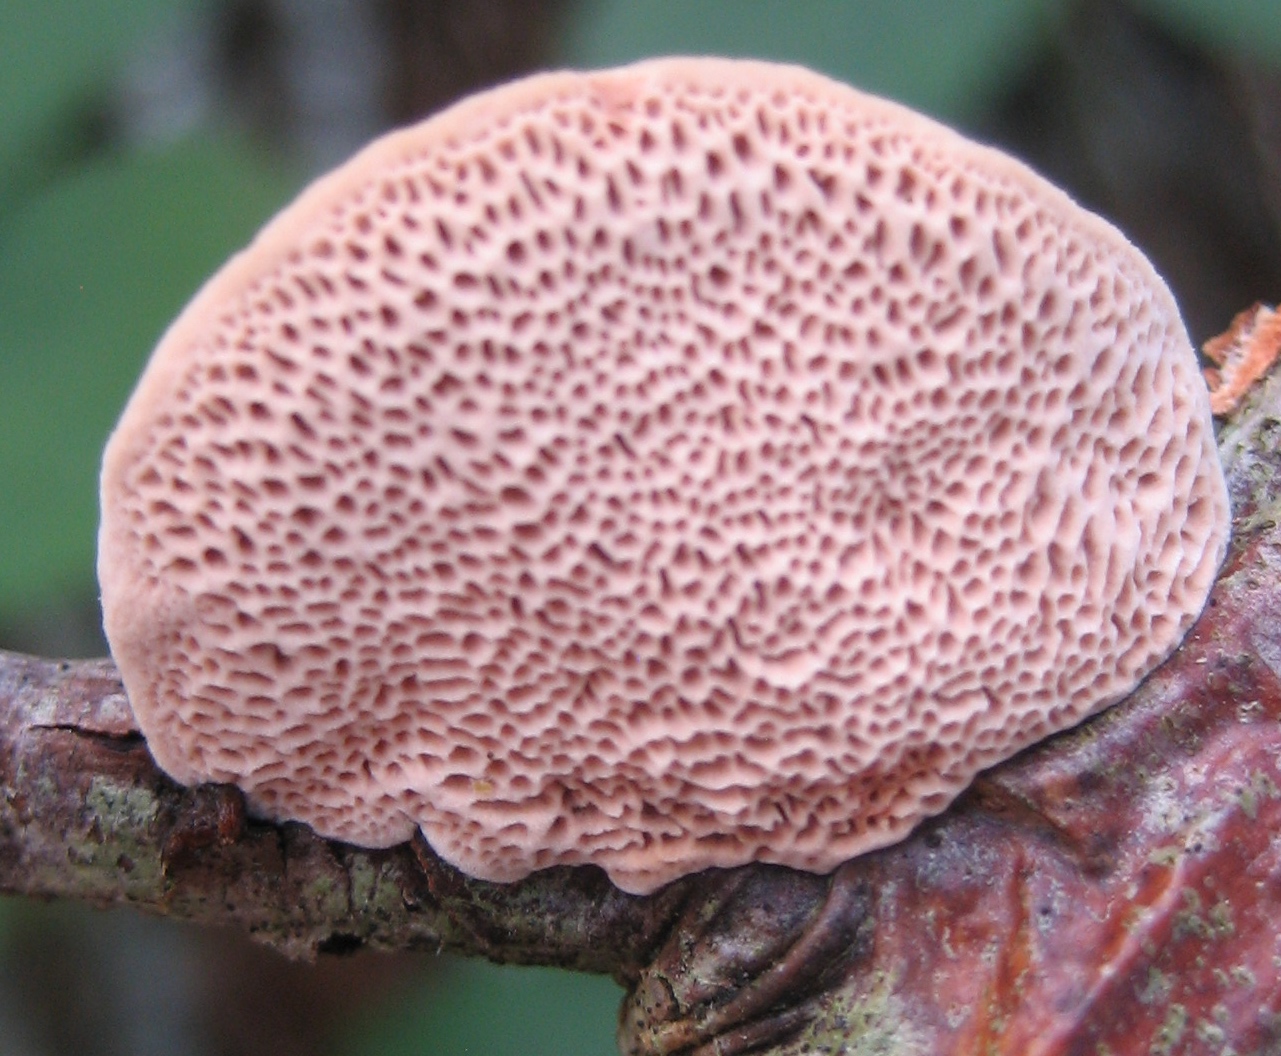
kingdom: Fungi
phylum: Basidiomycota
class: Agaricomycetes
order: Polyporales
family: Phanerochaetaceae
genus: Hapalopilus
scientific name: Hapalopilus rutilans
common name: rødlig okkerporesvamp
